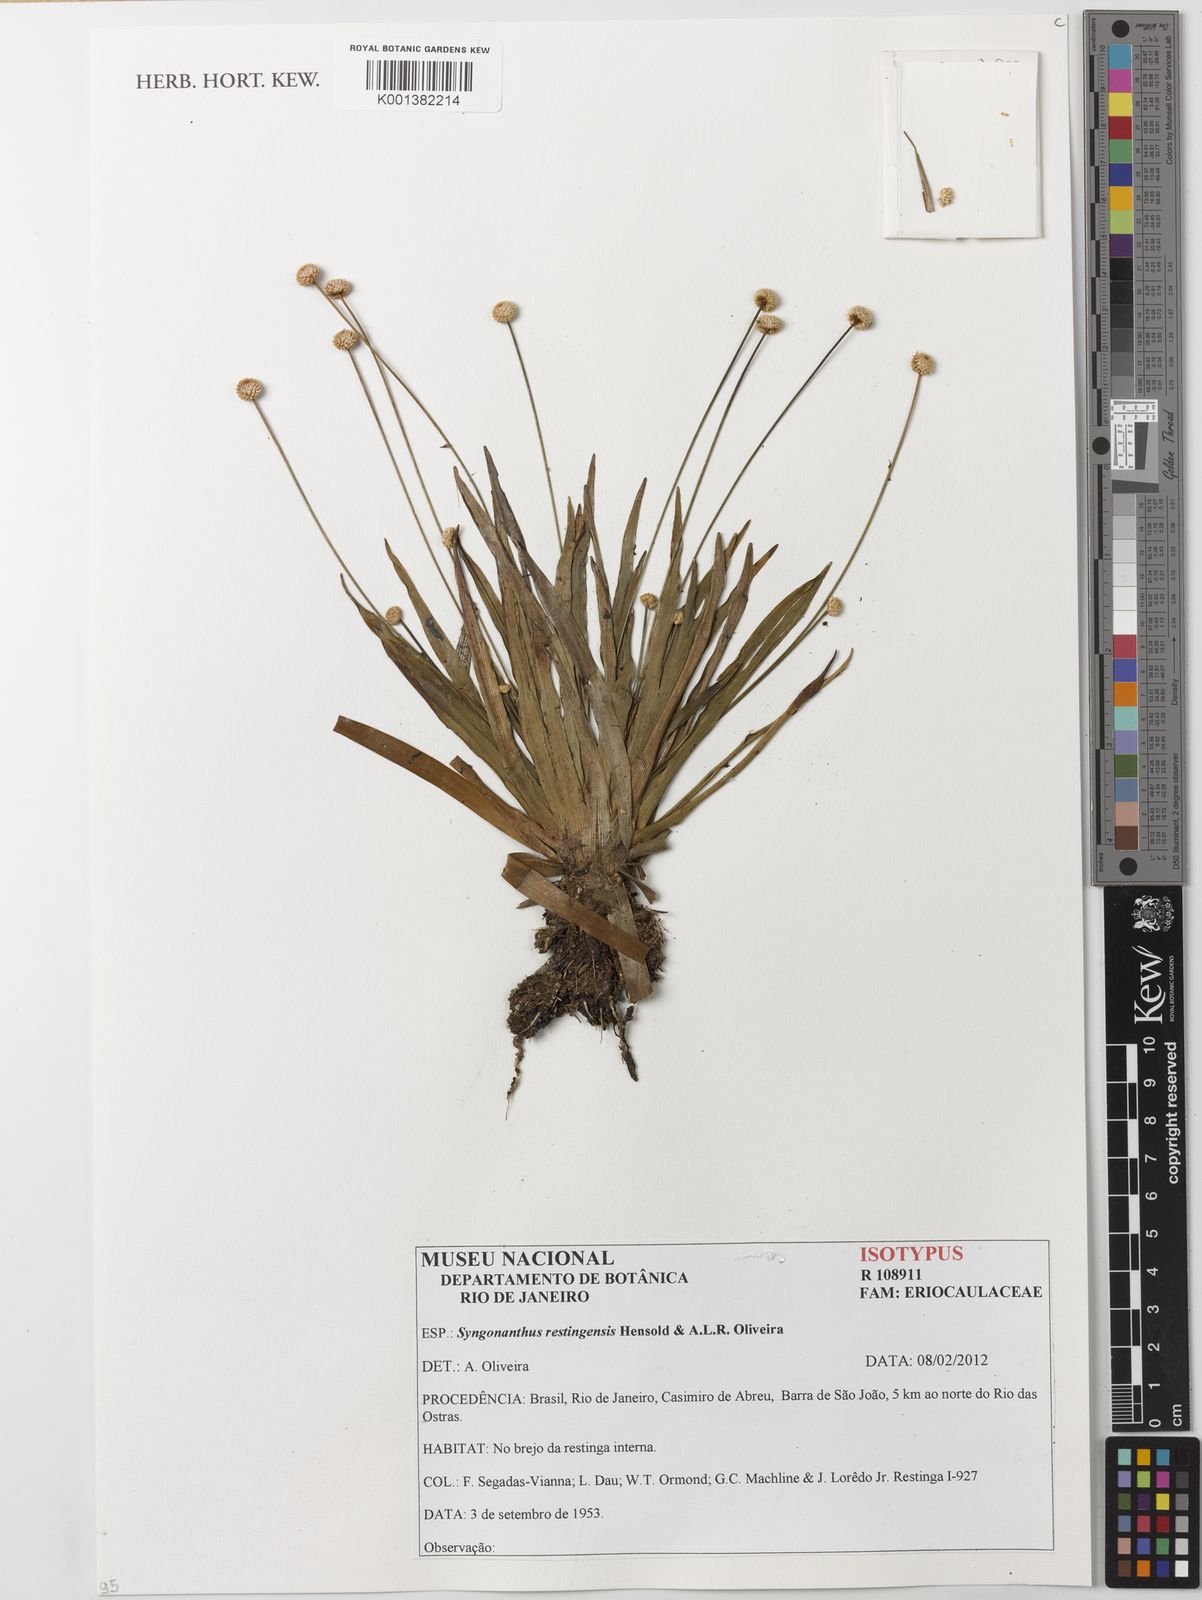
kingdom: Plantae
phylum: Tracheophyta
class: Liliopsida
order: Poales
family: Eriocaulaceae
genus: Syngonanthus
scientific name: Syngonanthus restingensis
